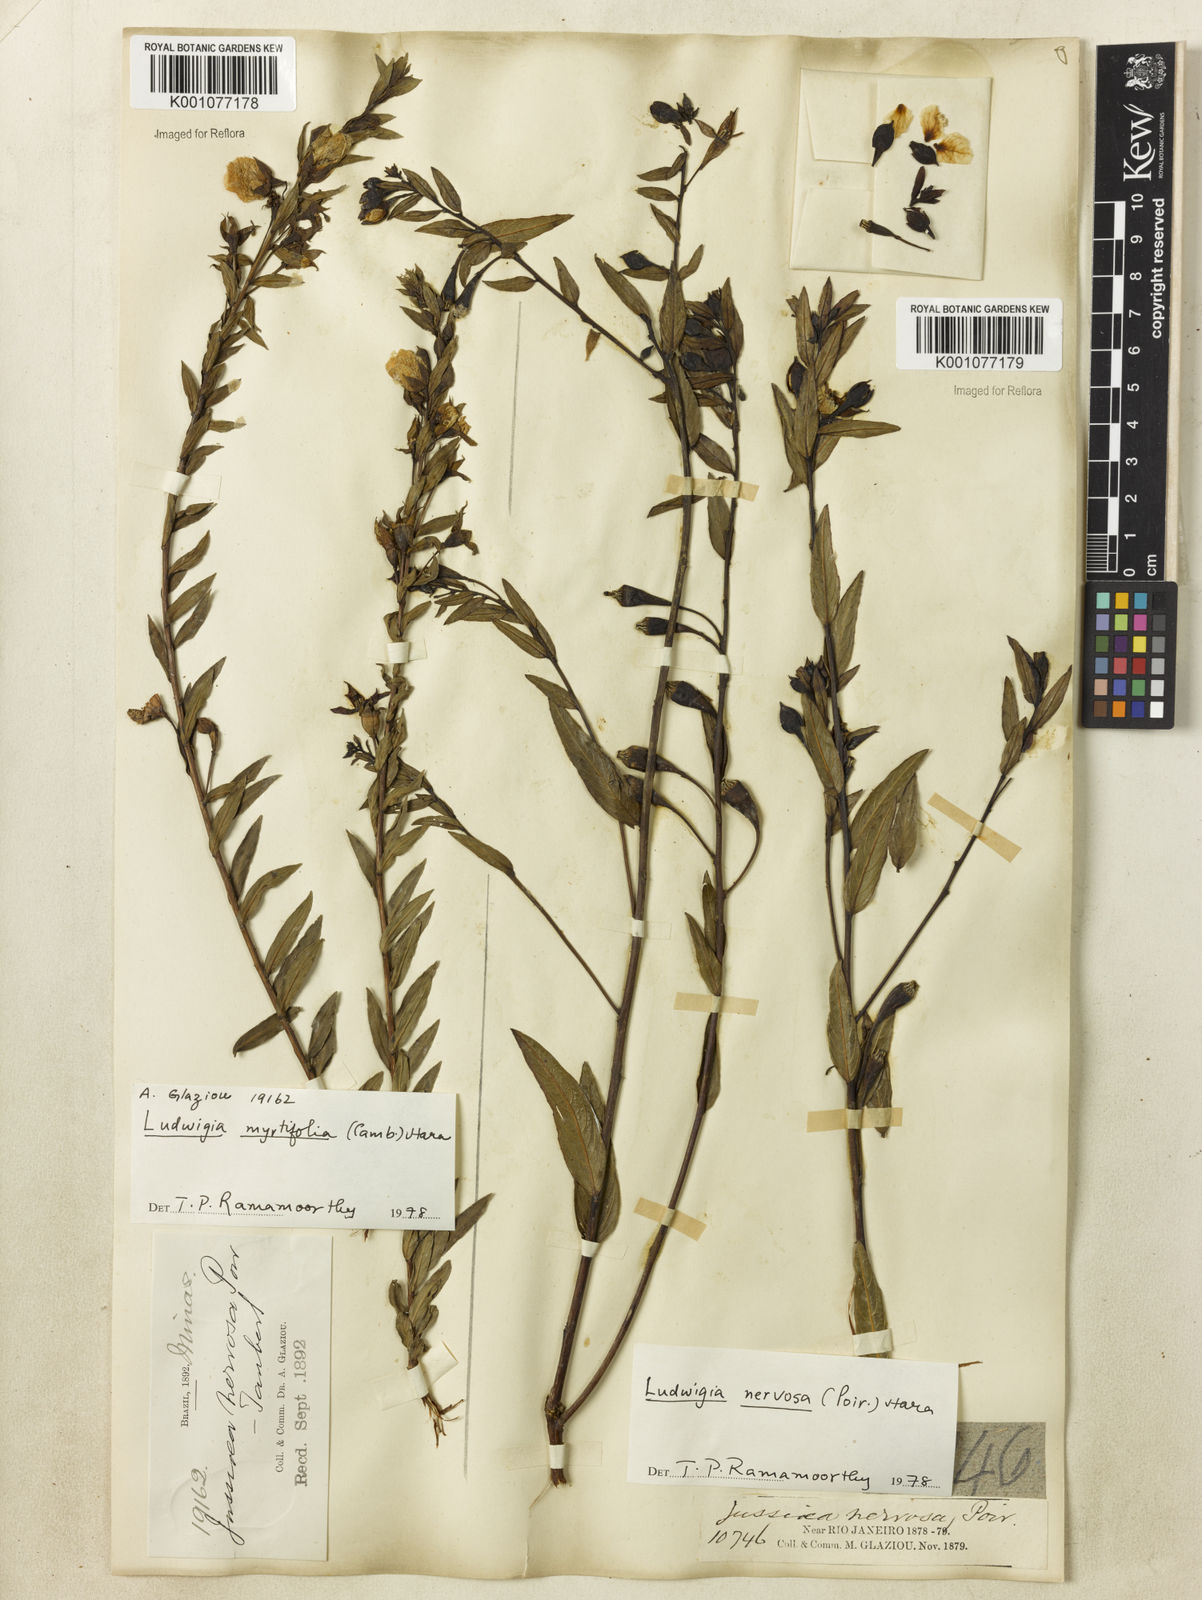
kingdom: Plantae
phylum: Tracheophyta
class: Magnoliopsida
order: Myrtales
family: Onagraceae
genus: Ludwigia
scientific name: Ludwigia nervosa
